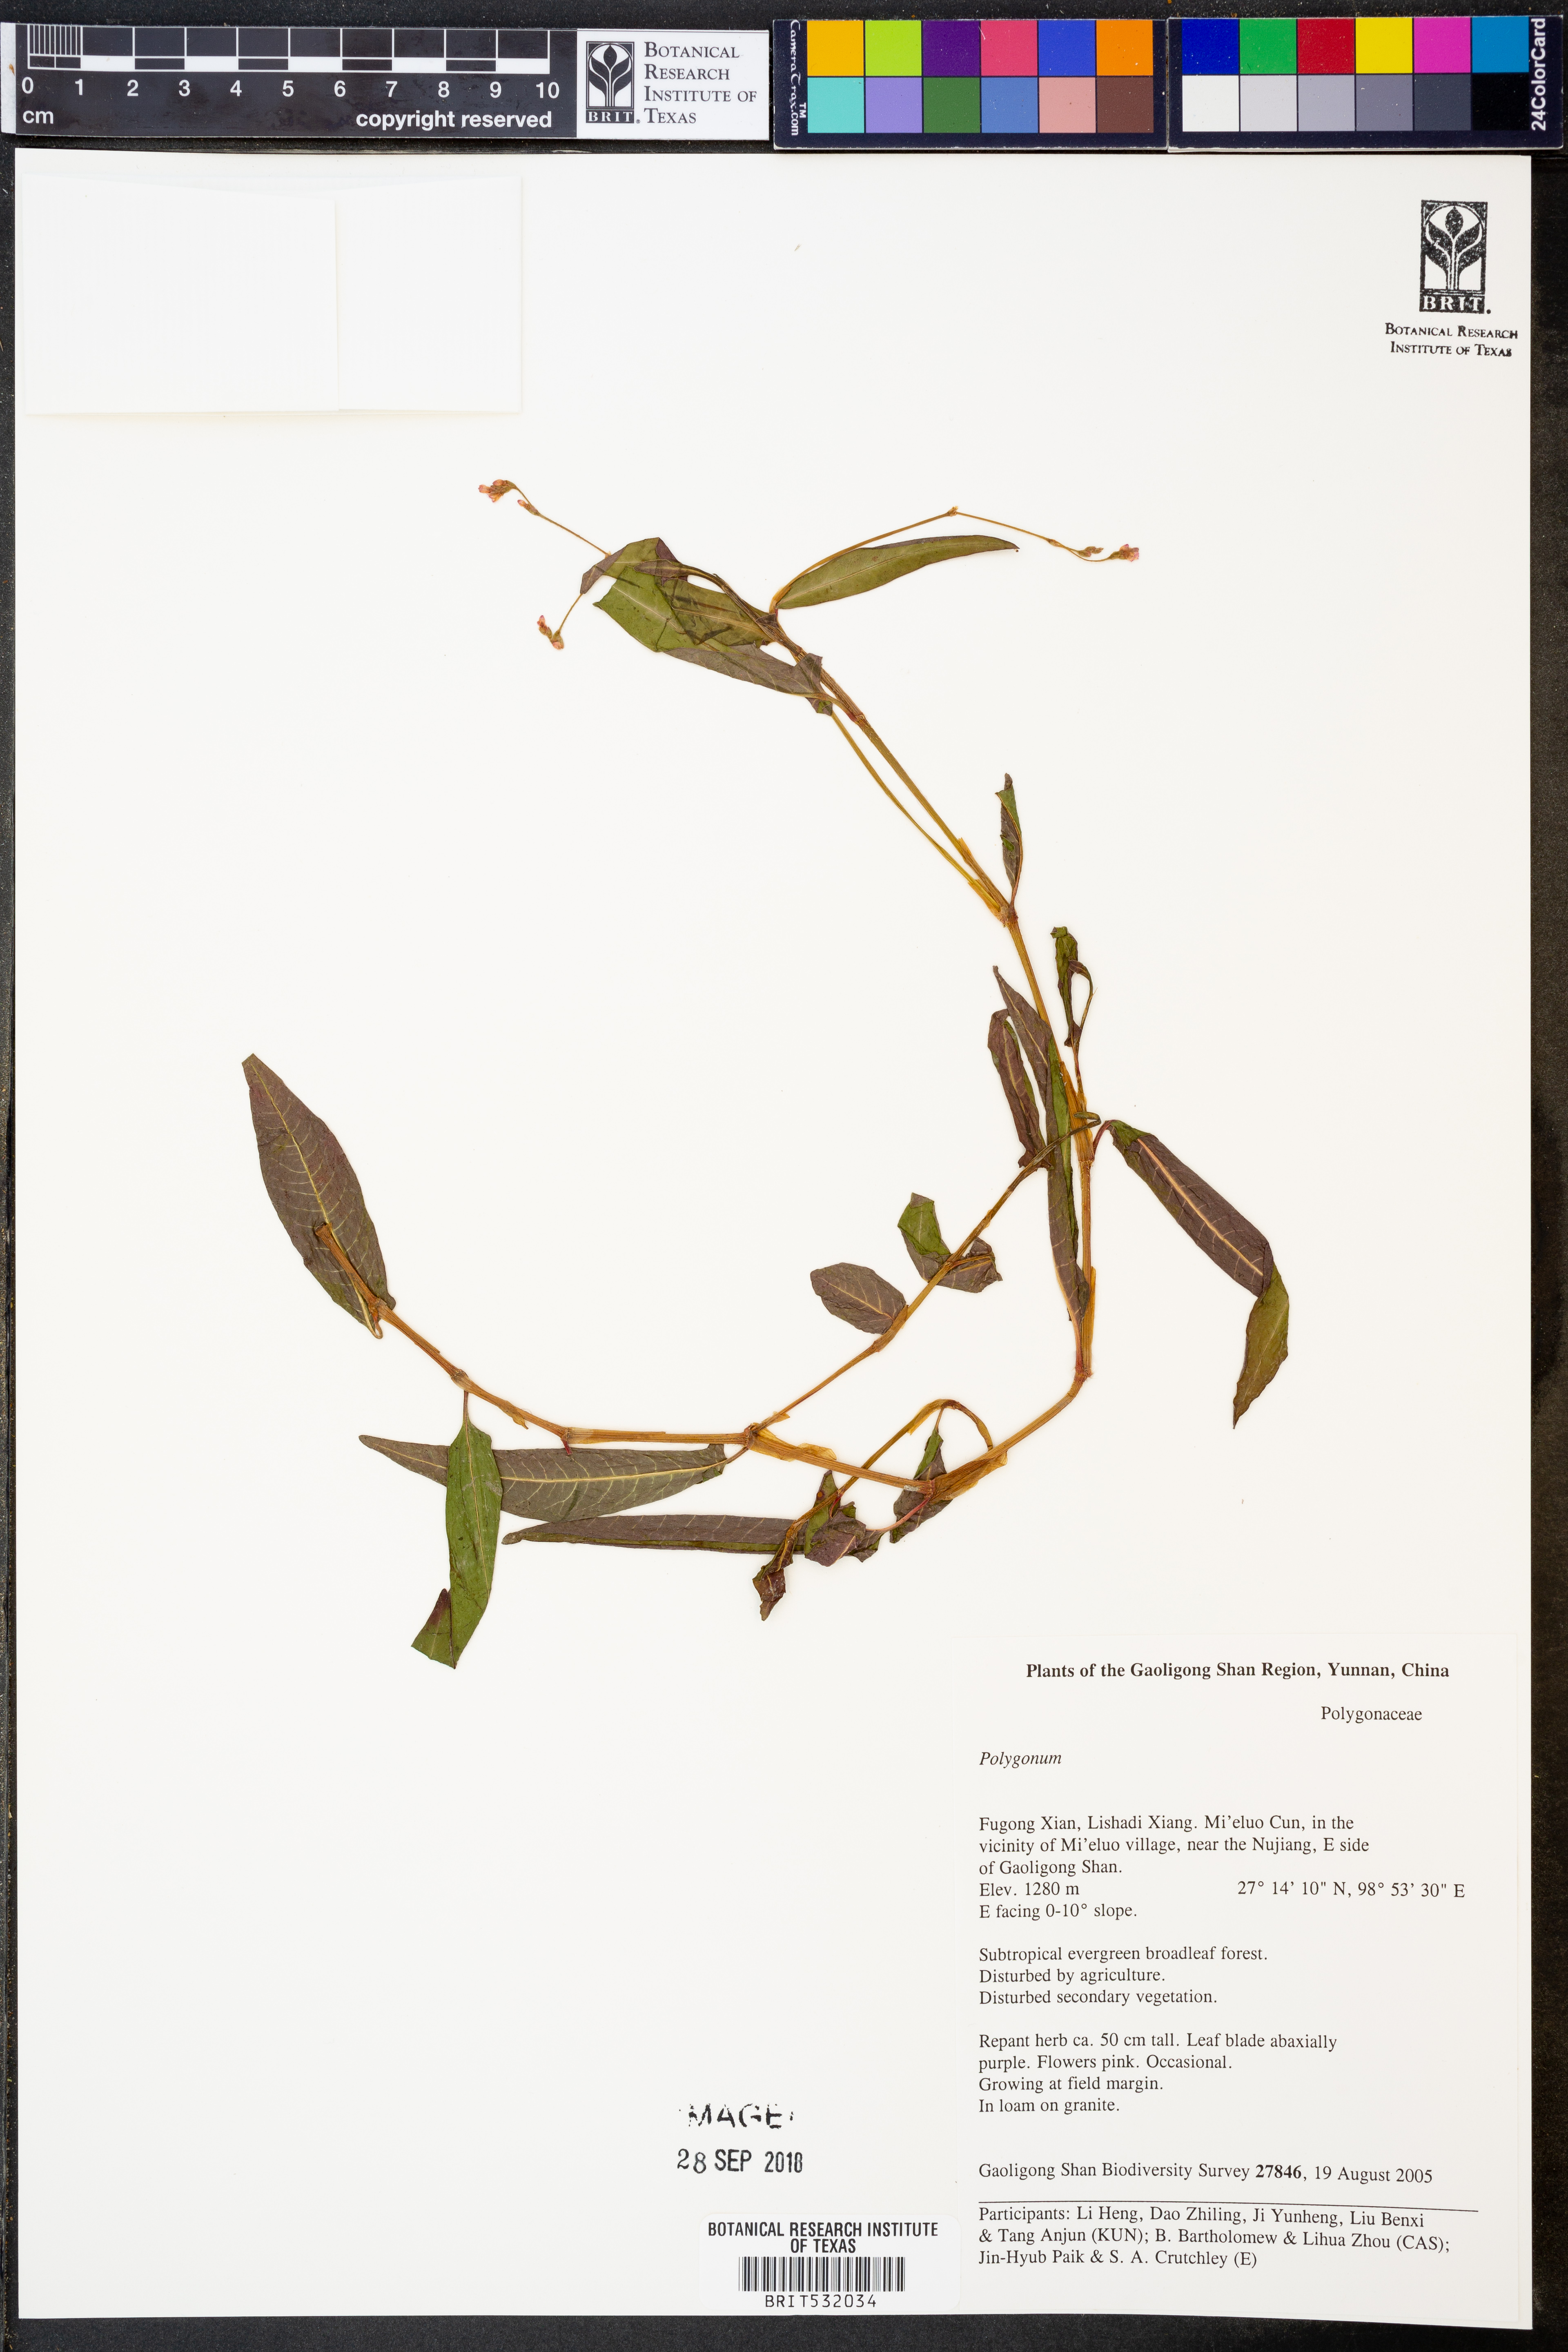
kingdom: Plantae
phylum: Tracheophyta
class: Magnoliopsida
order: Caryophyllales
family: Polygonaceae
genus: Polygonum
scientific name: Polygonum
